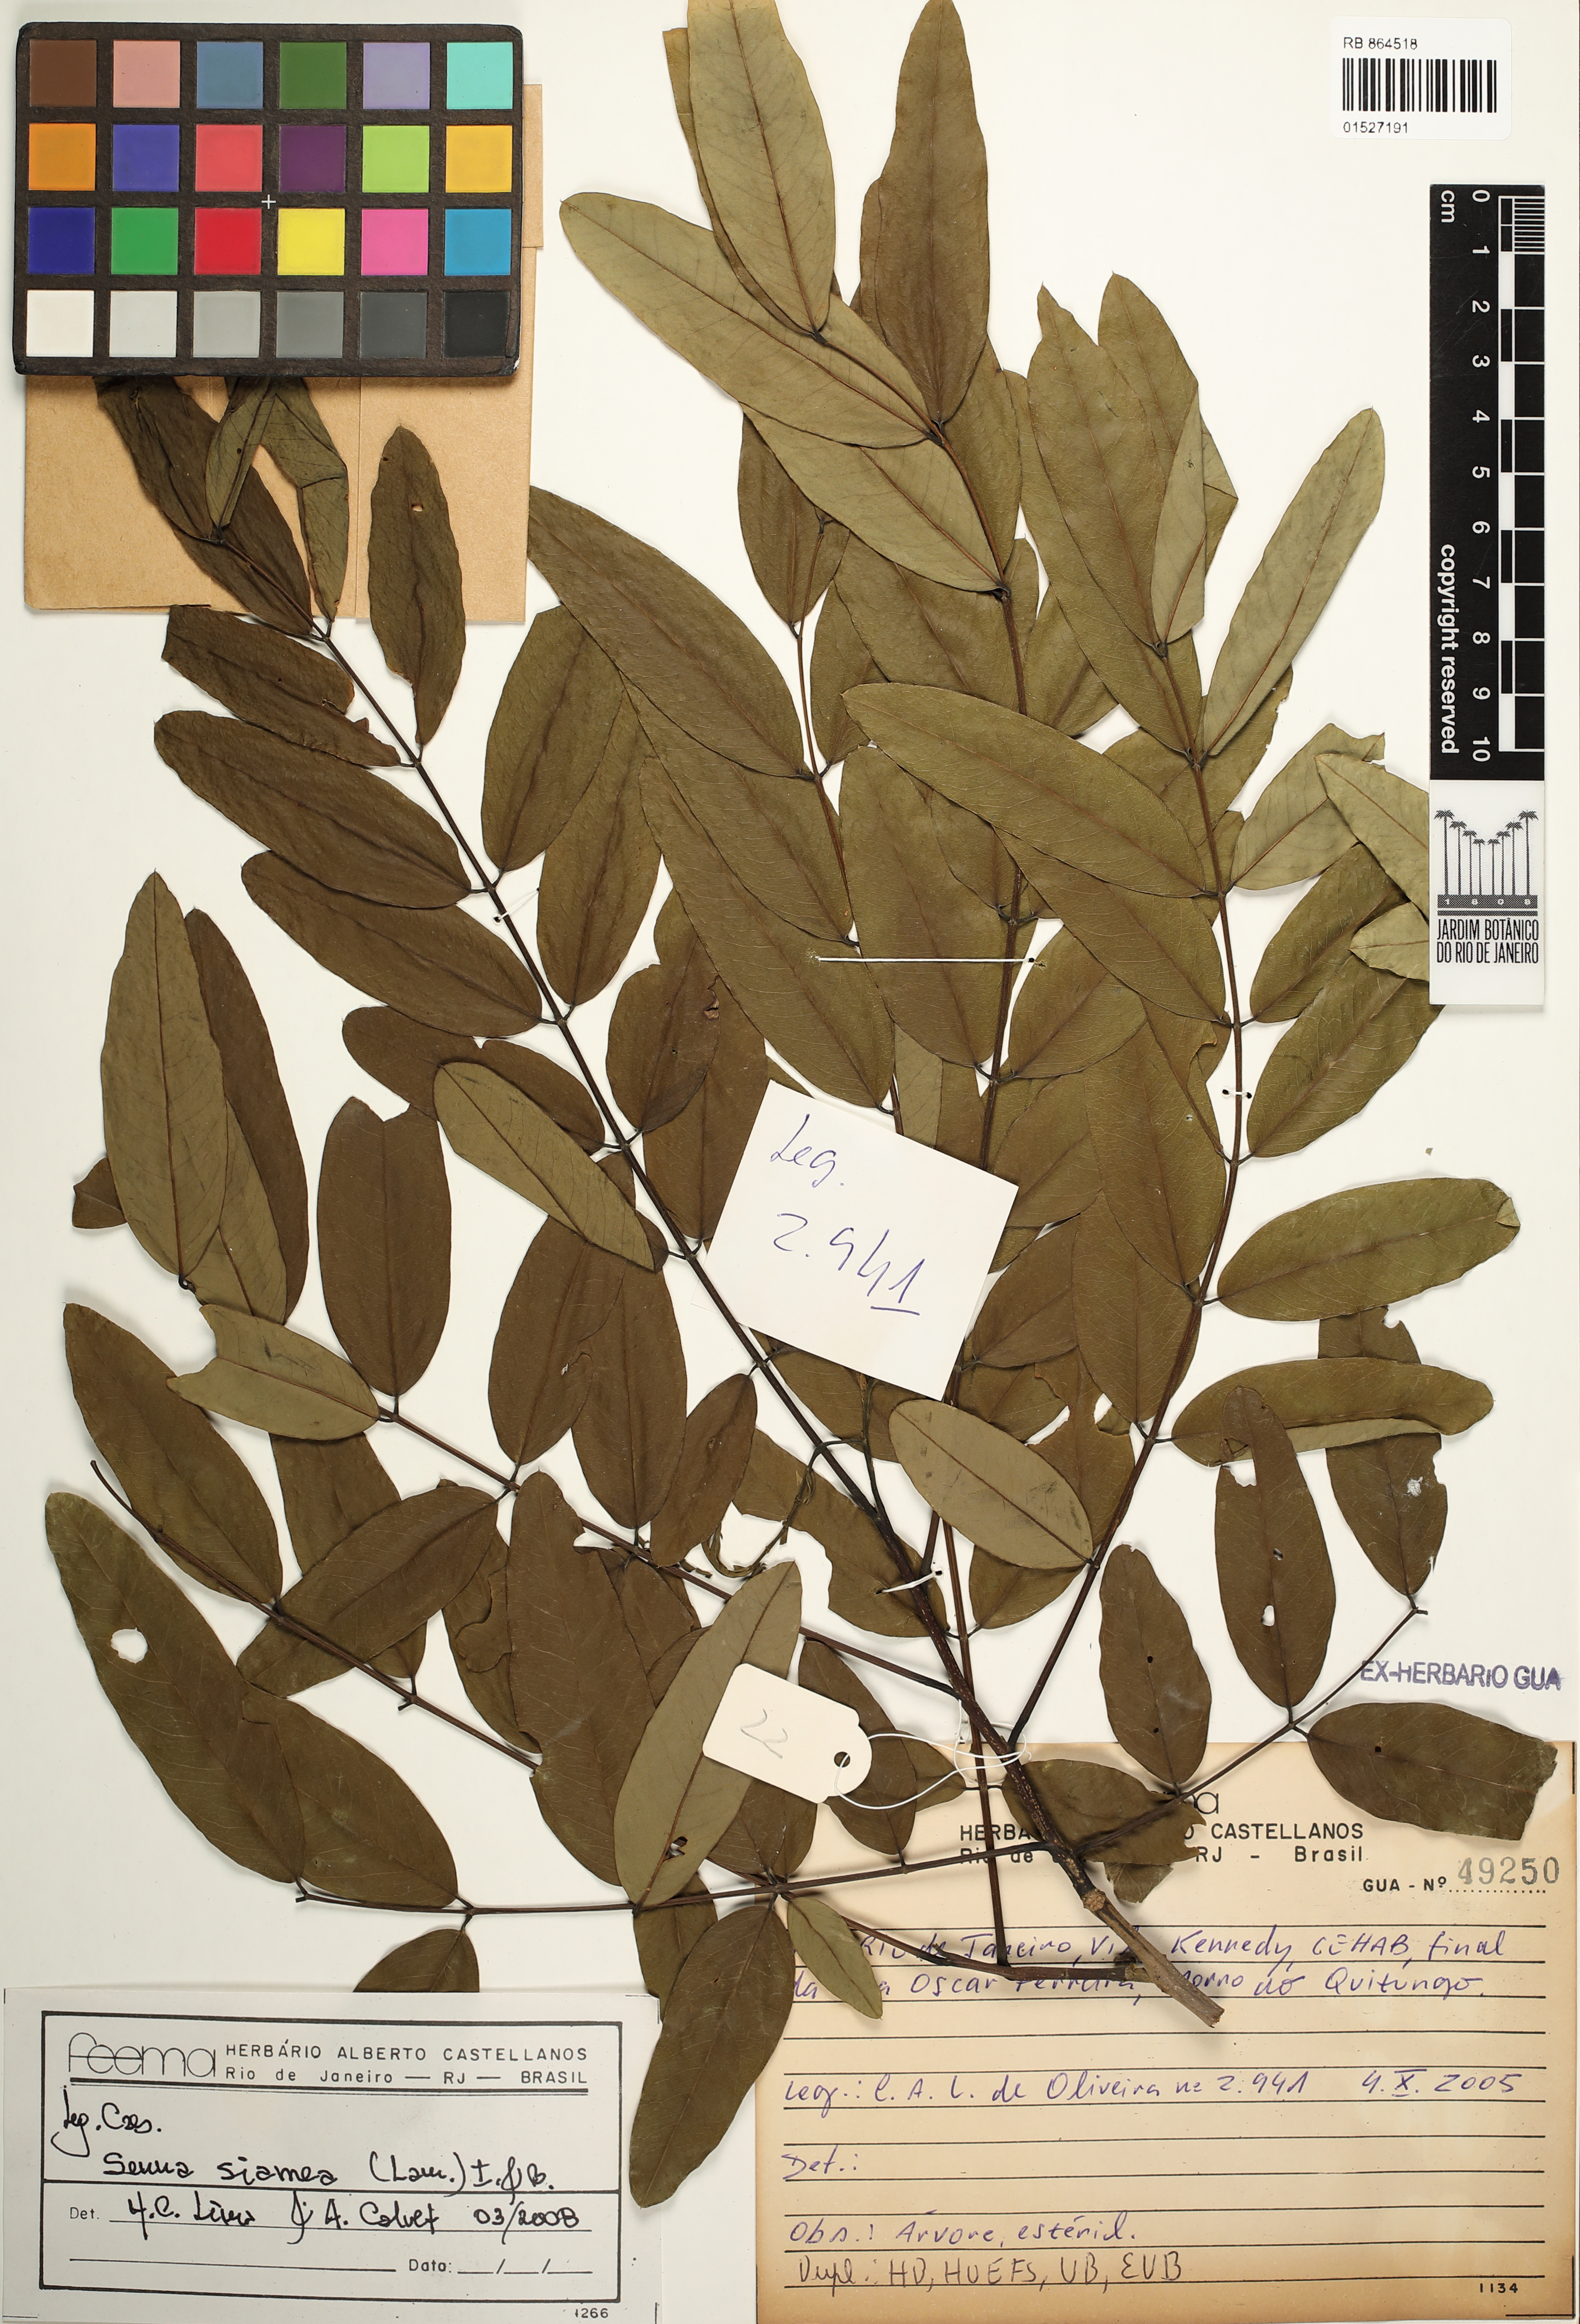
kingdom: Plantae
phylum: Tracheophyta
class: Magnoliopsida
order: Fabales
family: Fabaceae
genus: Senna
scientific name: Senna siamea
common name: Siamese cassia
